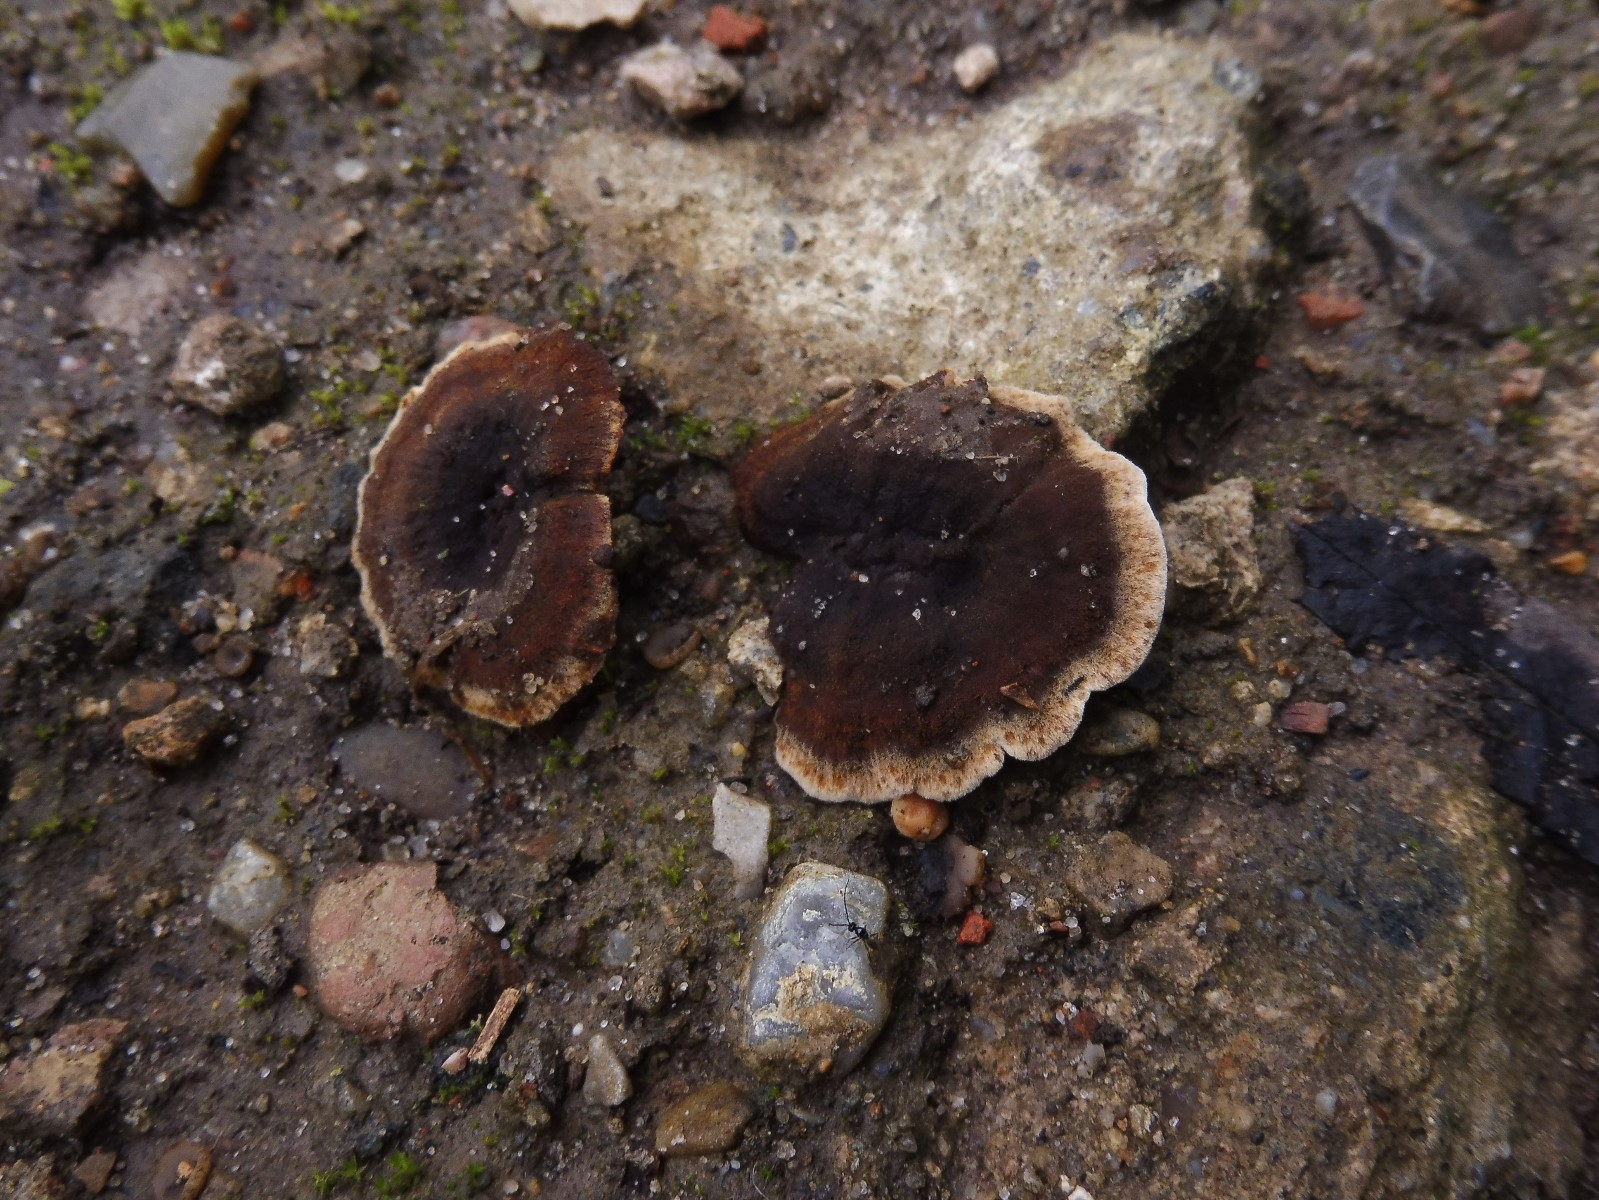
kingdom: Fungi
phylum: Basidiomycota
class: Agaricomycetes
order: Hymenochaetales
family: Hymenochaetaceae
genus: Coltricia
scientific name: Coltricia
